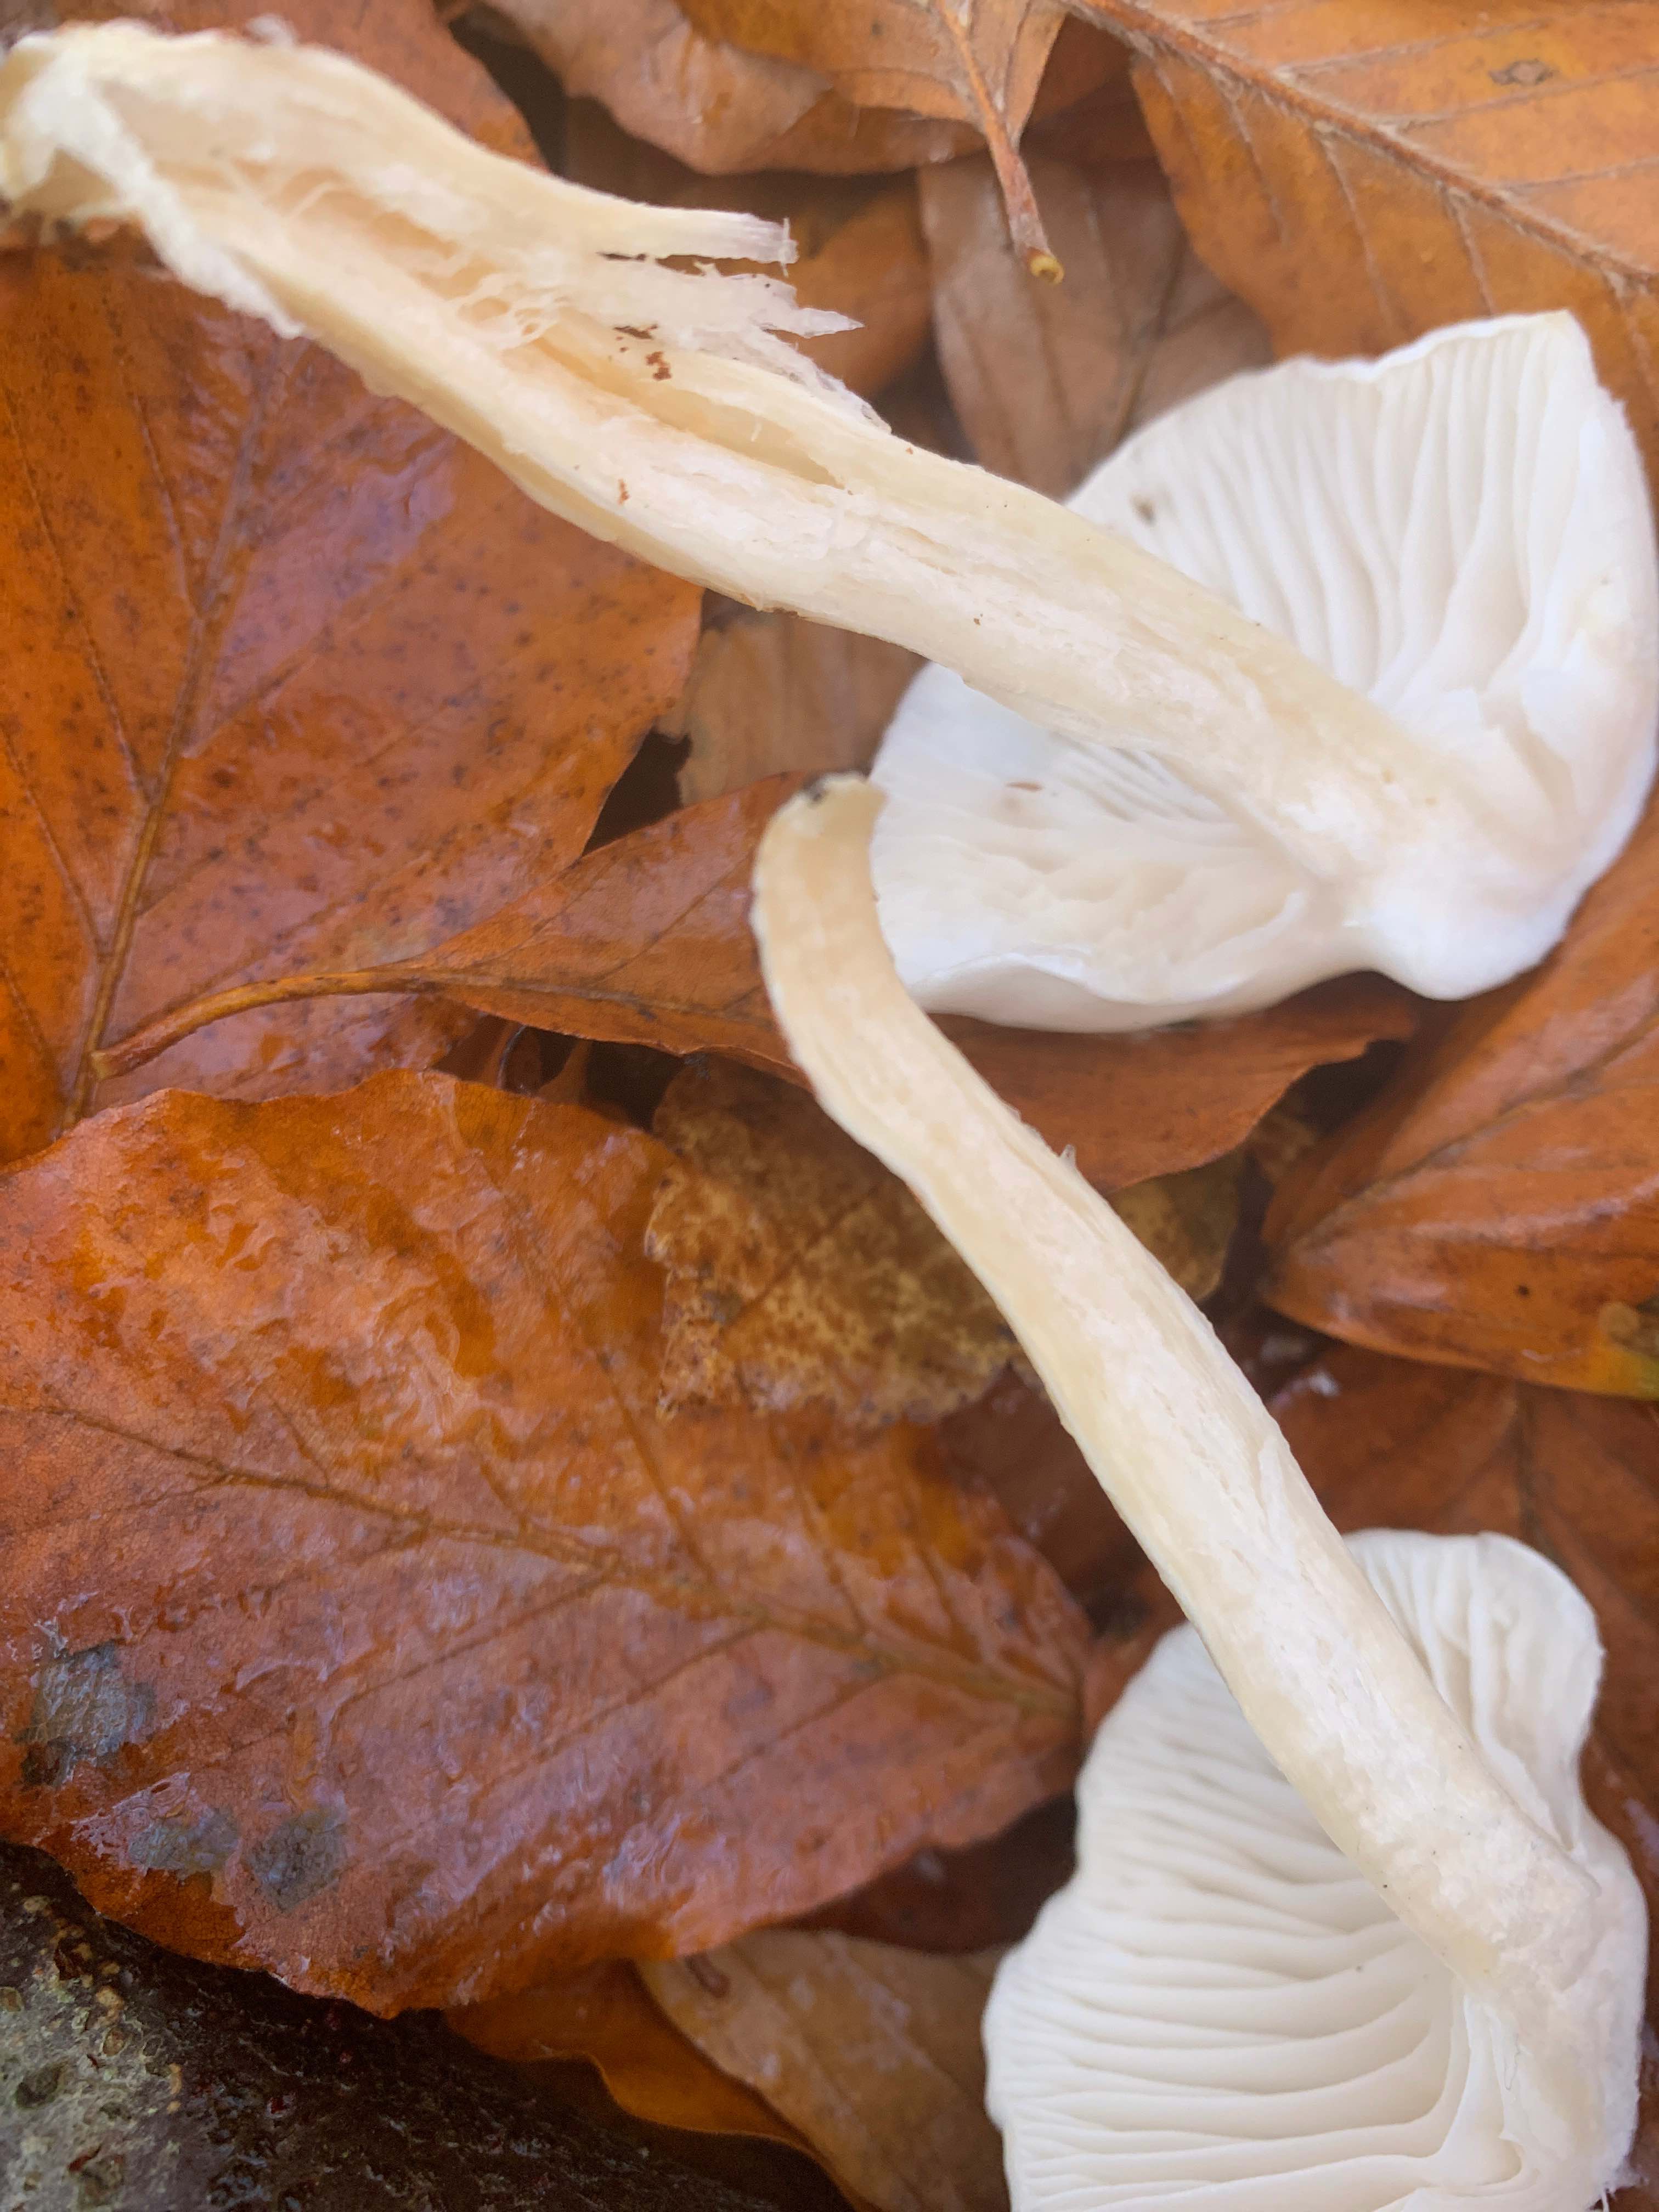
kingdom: Fungi
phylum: Basidiomycota
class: Agaricomycetes
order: Agaricales
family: Hygrophoraceae
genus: Hygrophorus
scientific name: Hygrophorus
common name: sneglehat
